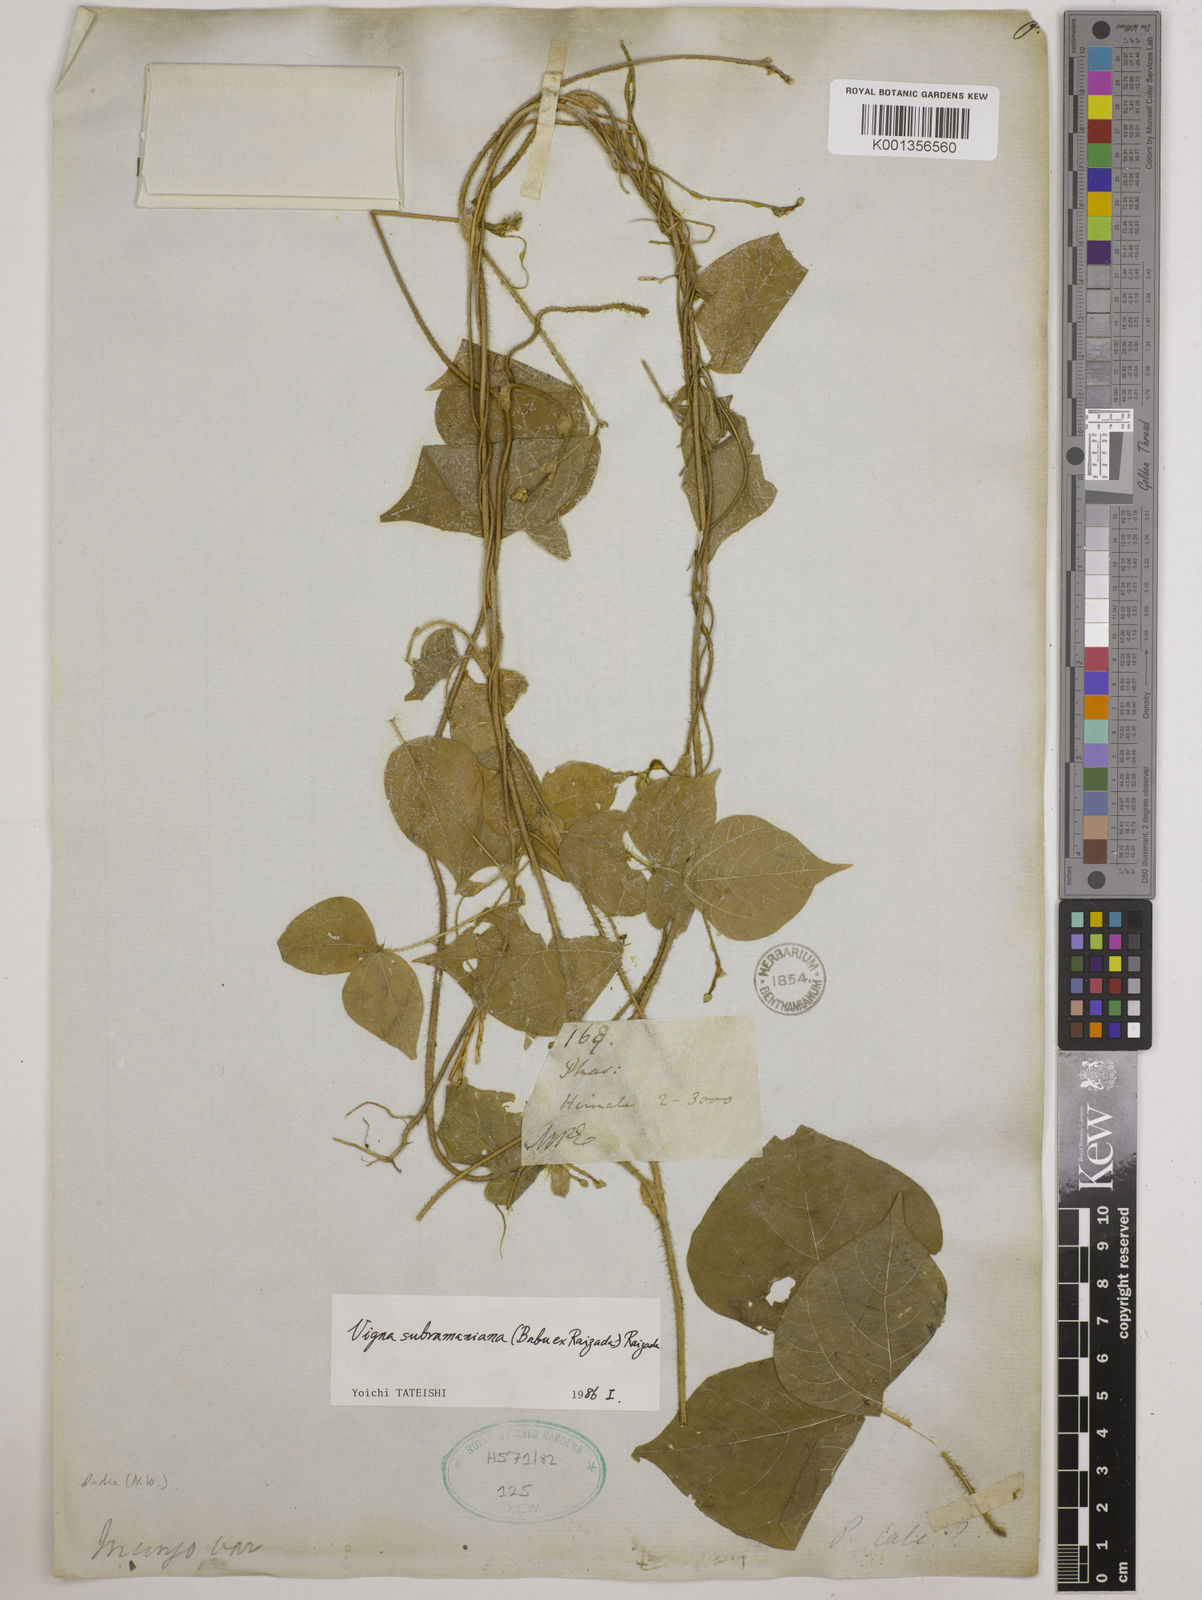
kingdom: Plantae
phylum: Tracheophyta
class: Magnoliopsida
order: Fabales
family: Fabaceae
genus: Vigna
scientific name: Vigna subramaniana
